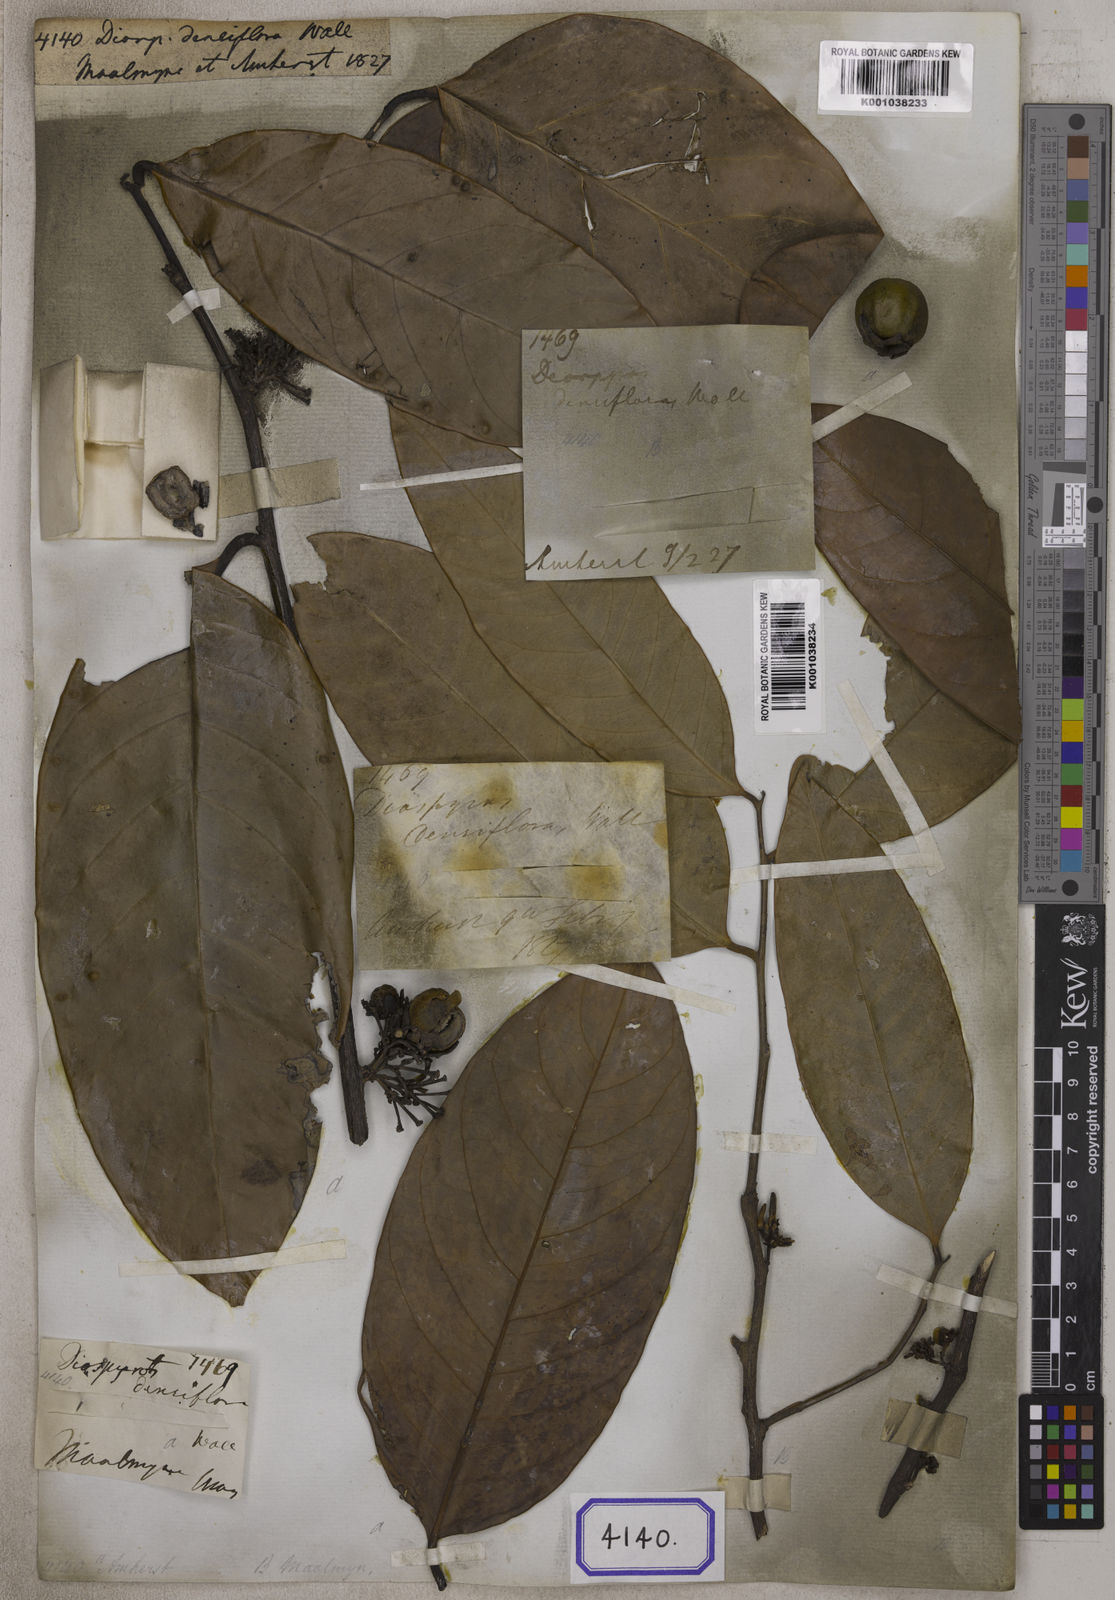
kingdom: Plantae
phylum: Tracheophyta
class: Magnoliopsida
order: Ericales
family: Ebenaceae
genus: Diospyros
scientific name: Diospyros
